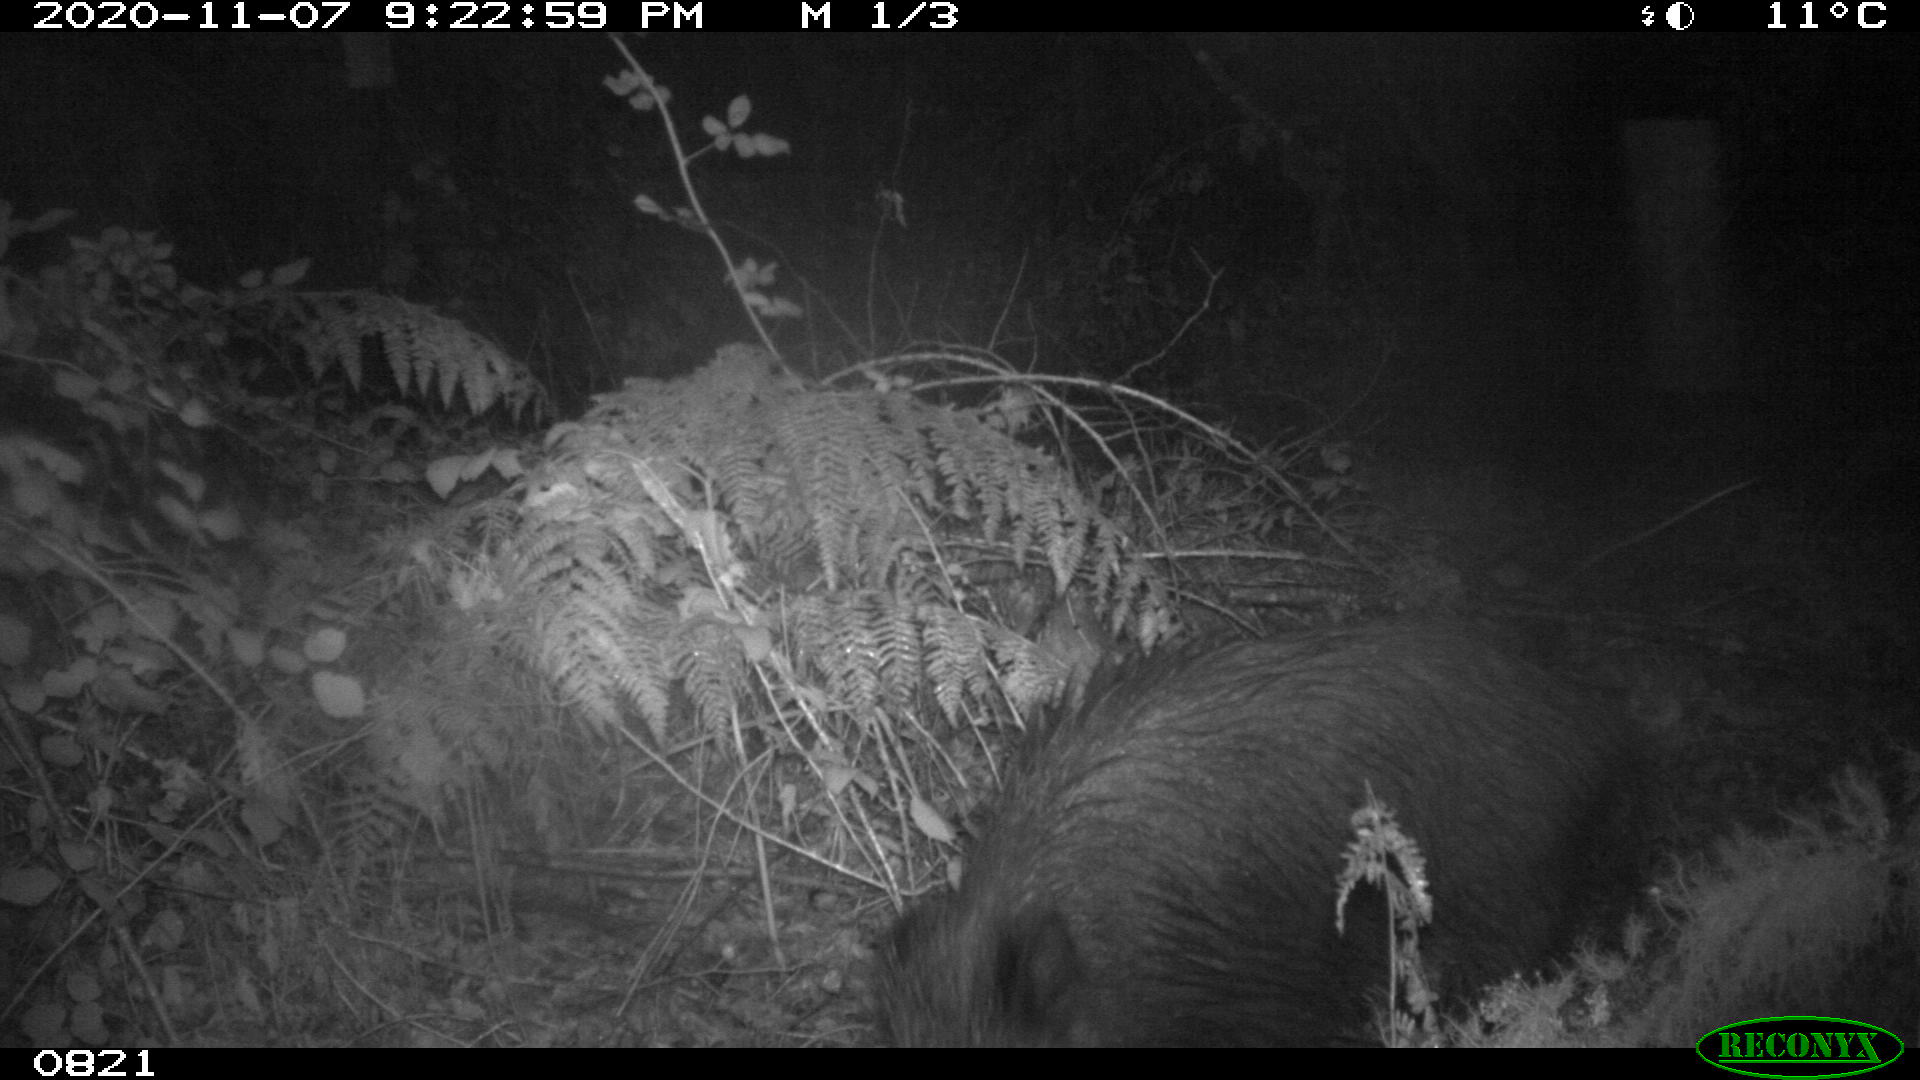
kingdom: Animalia
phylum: Chordata
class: Mammalia
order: Artiodactyla
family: Bovidae
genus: Bos
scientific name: Bos taurus
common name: Domesticated cattle
